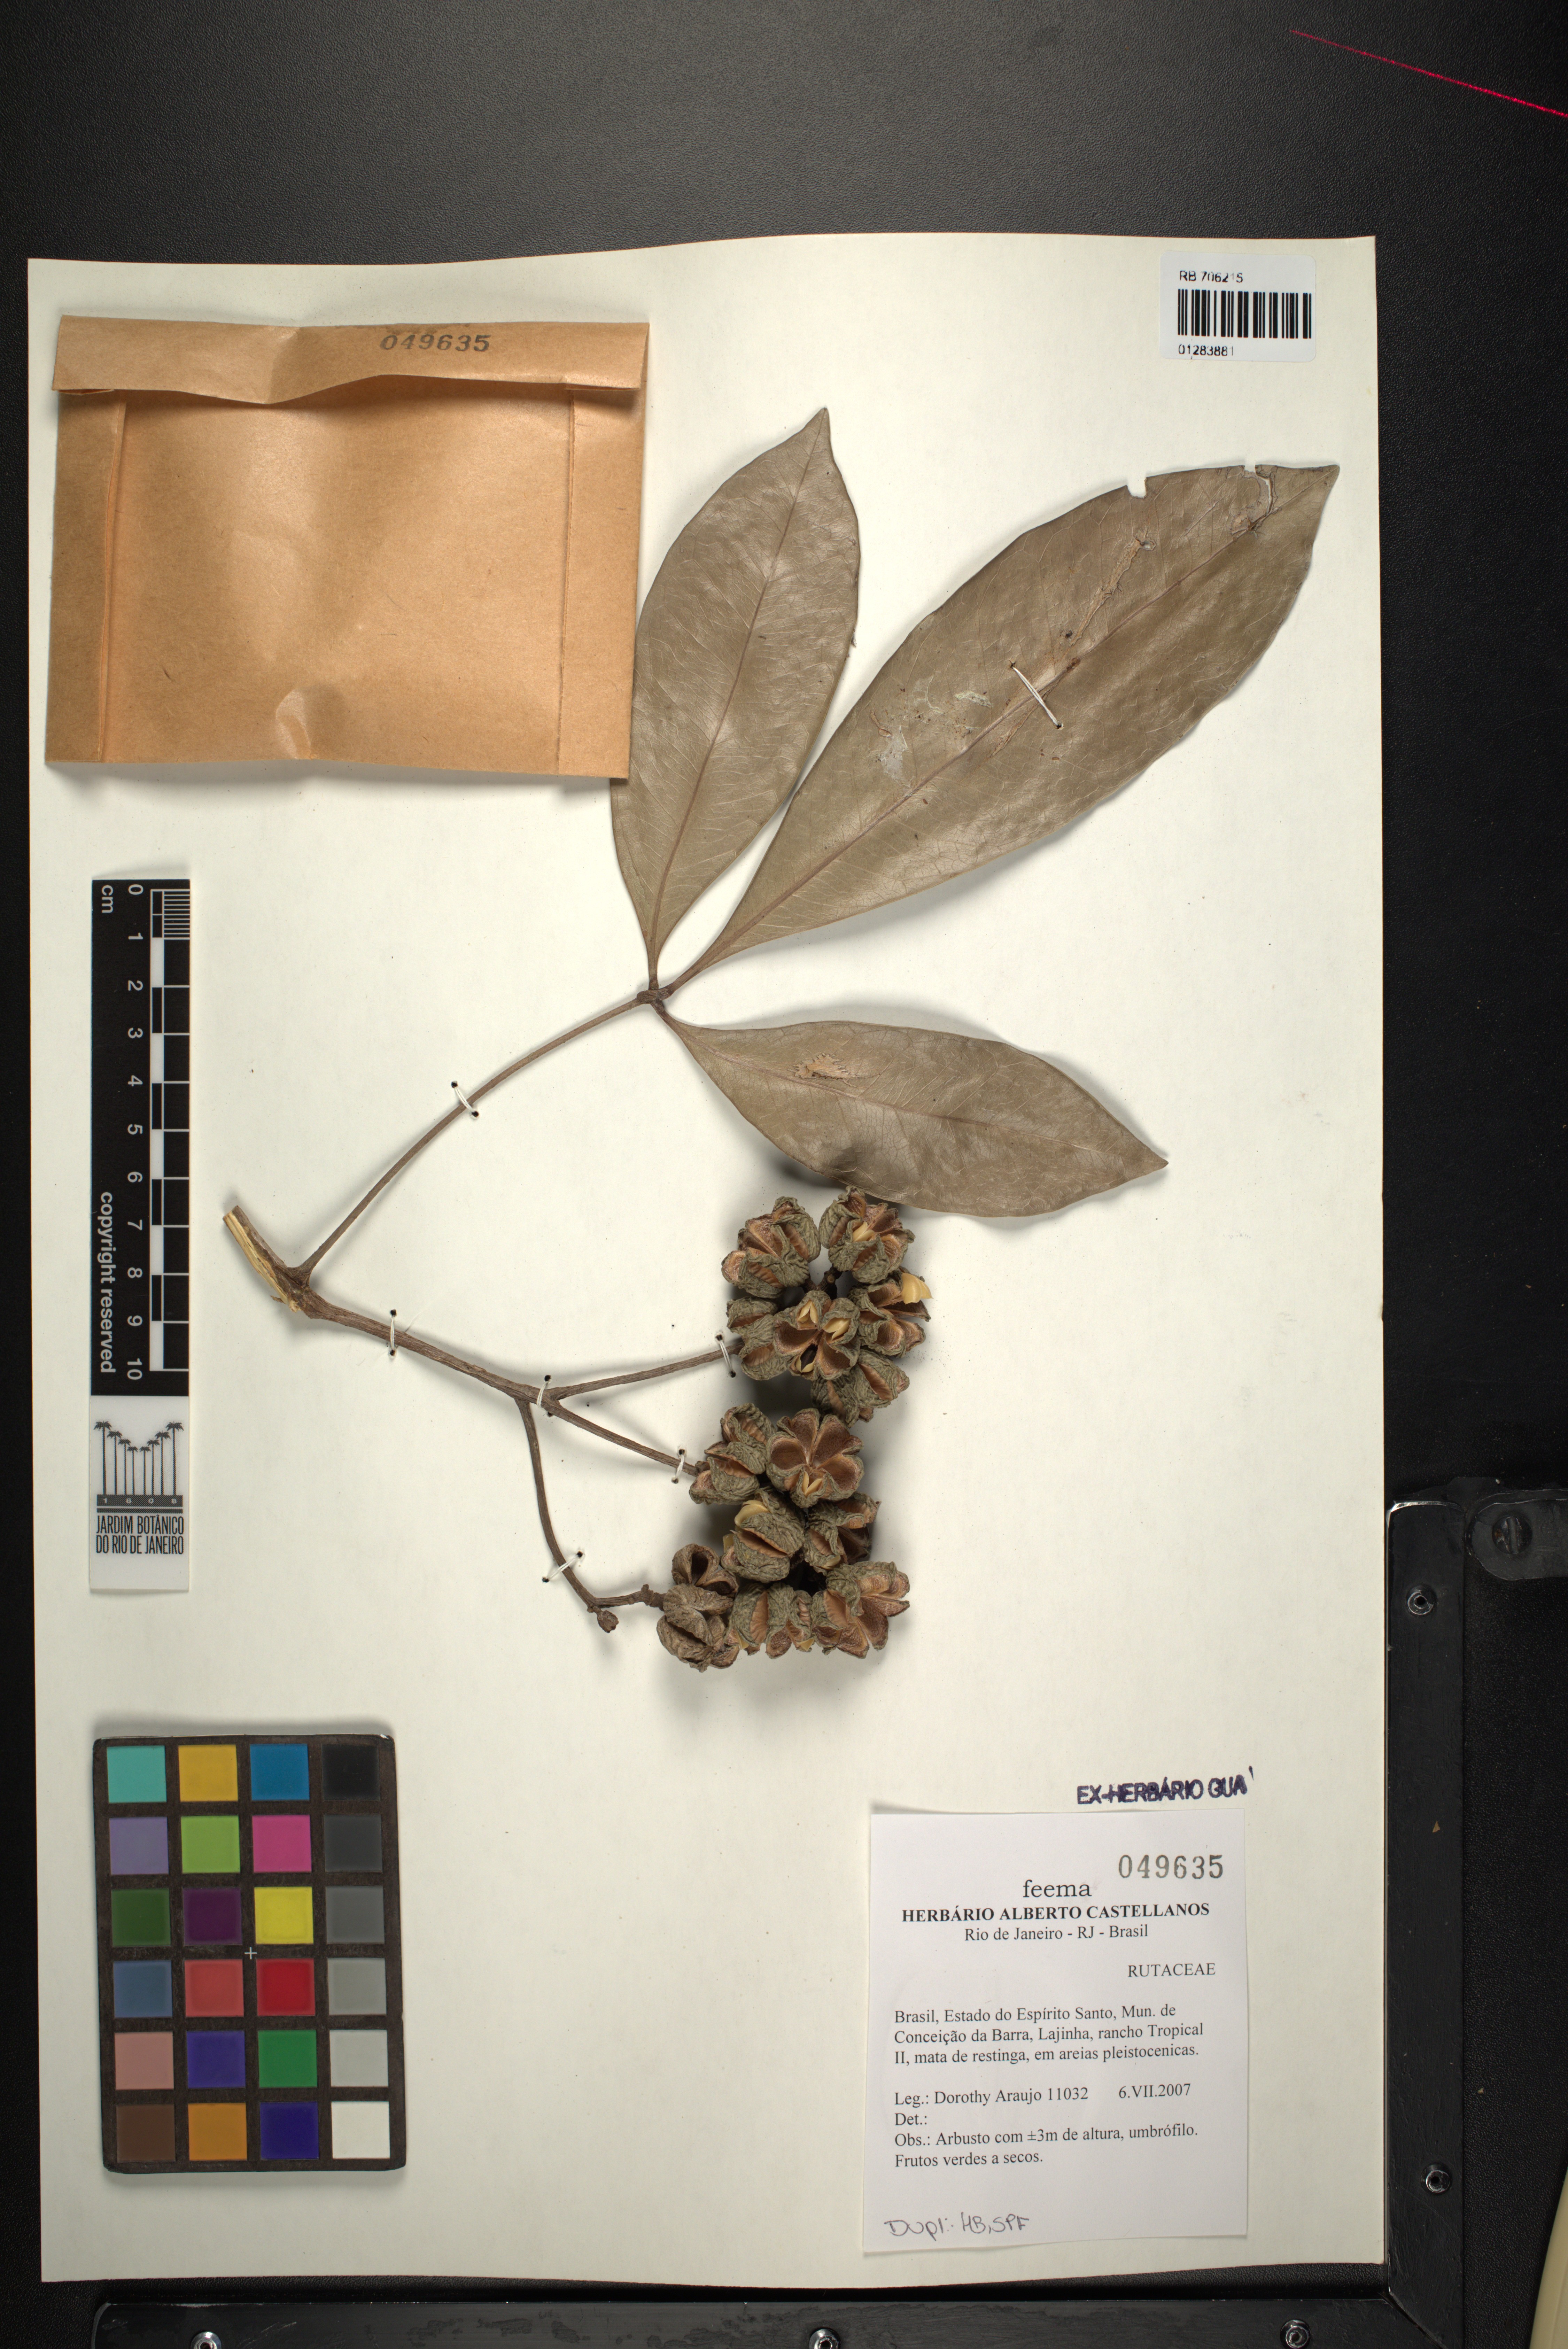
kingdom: Plantae
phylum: Tracheophyta
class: Magnoliopsida
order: Sapindales
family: Rutaceae
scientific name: Rutaceae
